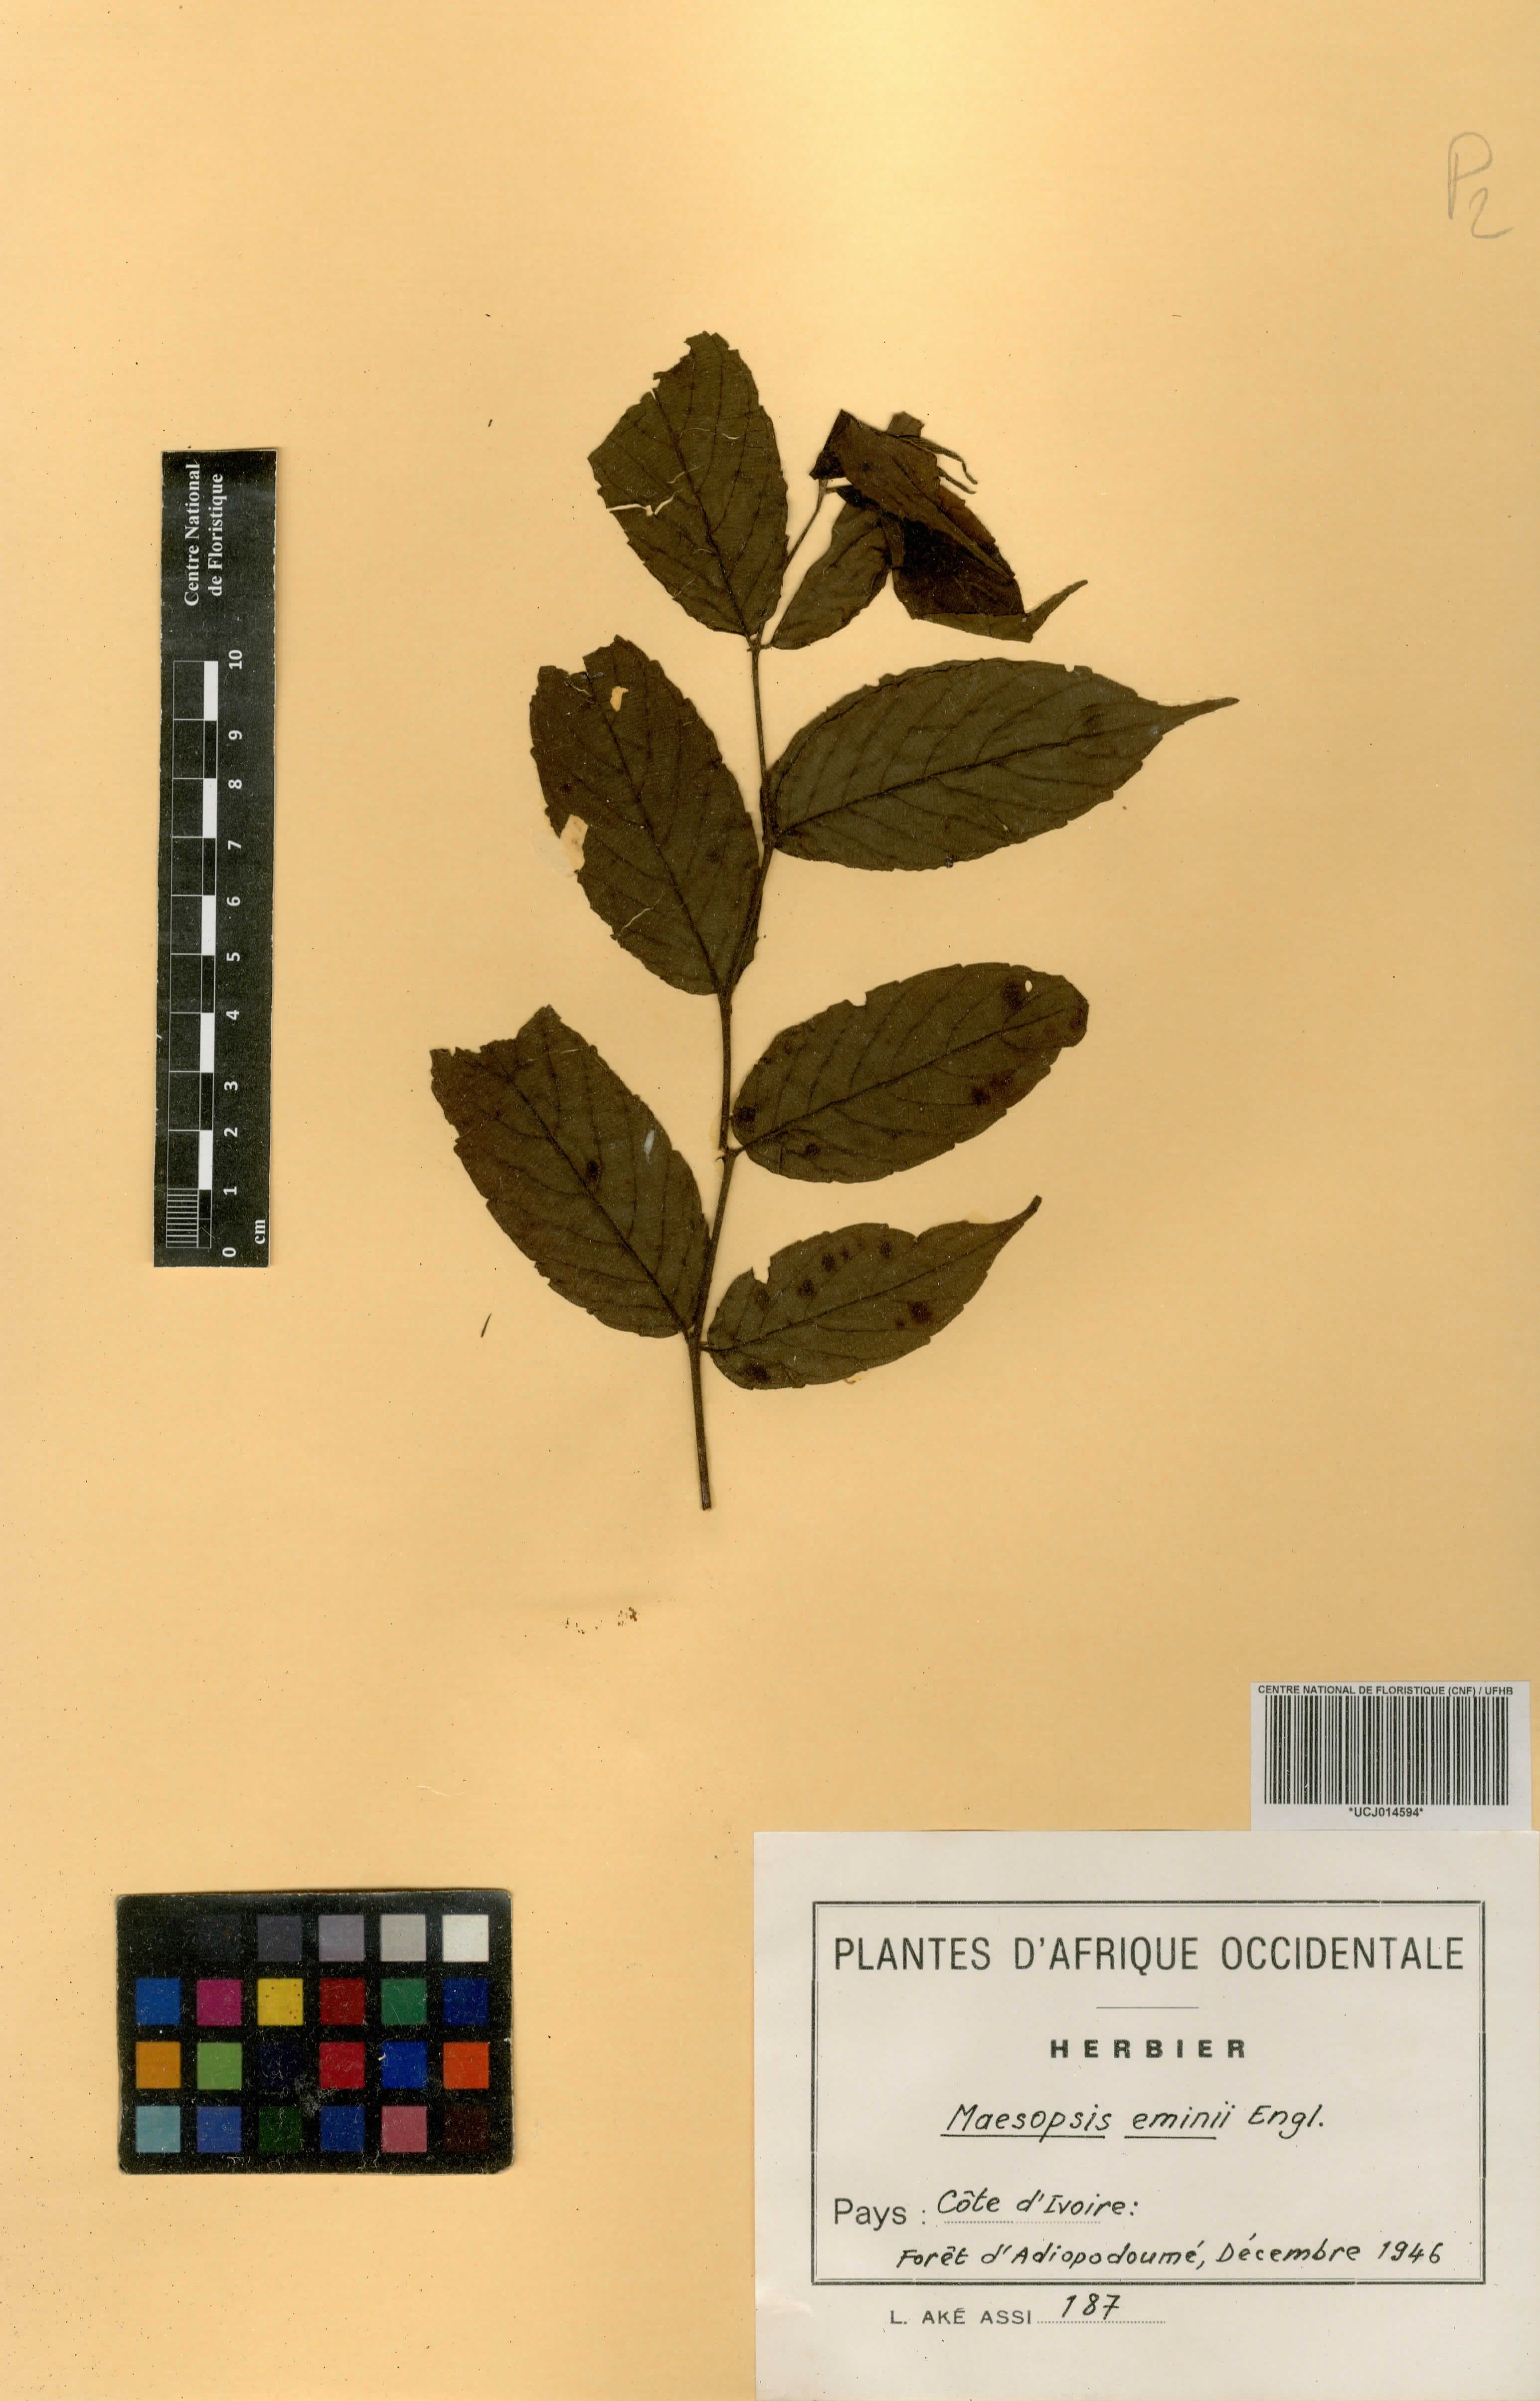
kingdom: Plantae
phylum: Tracheophyta
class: Magnoliopsida
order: Rosales
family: Rhamnaceae
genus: Maesopsis
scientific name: Maesopsis eminii
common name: Umbrella tree
